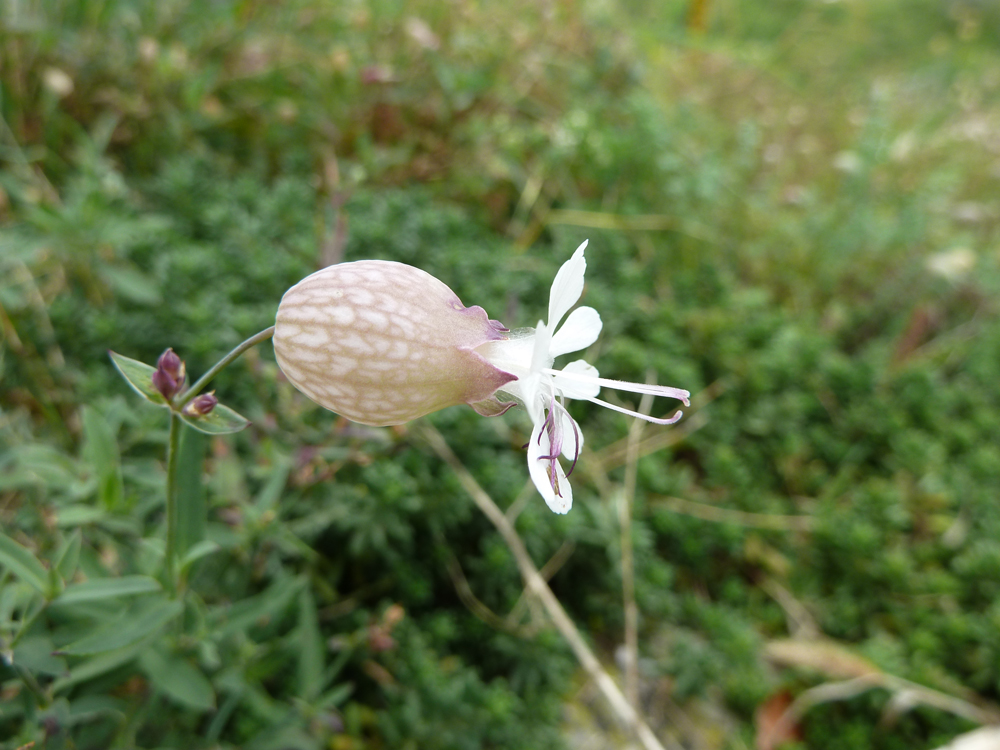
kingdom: Plantae
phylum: Tracheophyta
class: Magnoliopsida
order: Caryophyllales
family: Caryophyllaceae
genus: Silene
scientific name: Silene vulgaris
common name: Bladder campion
